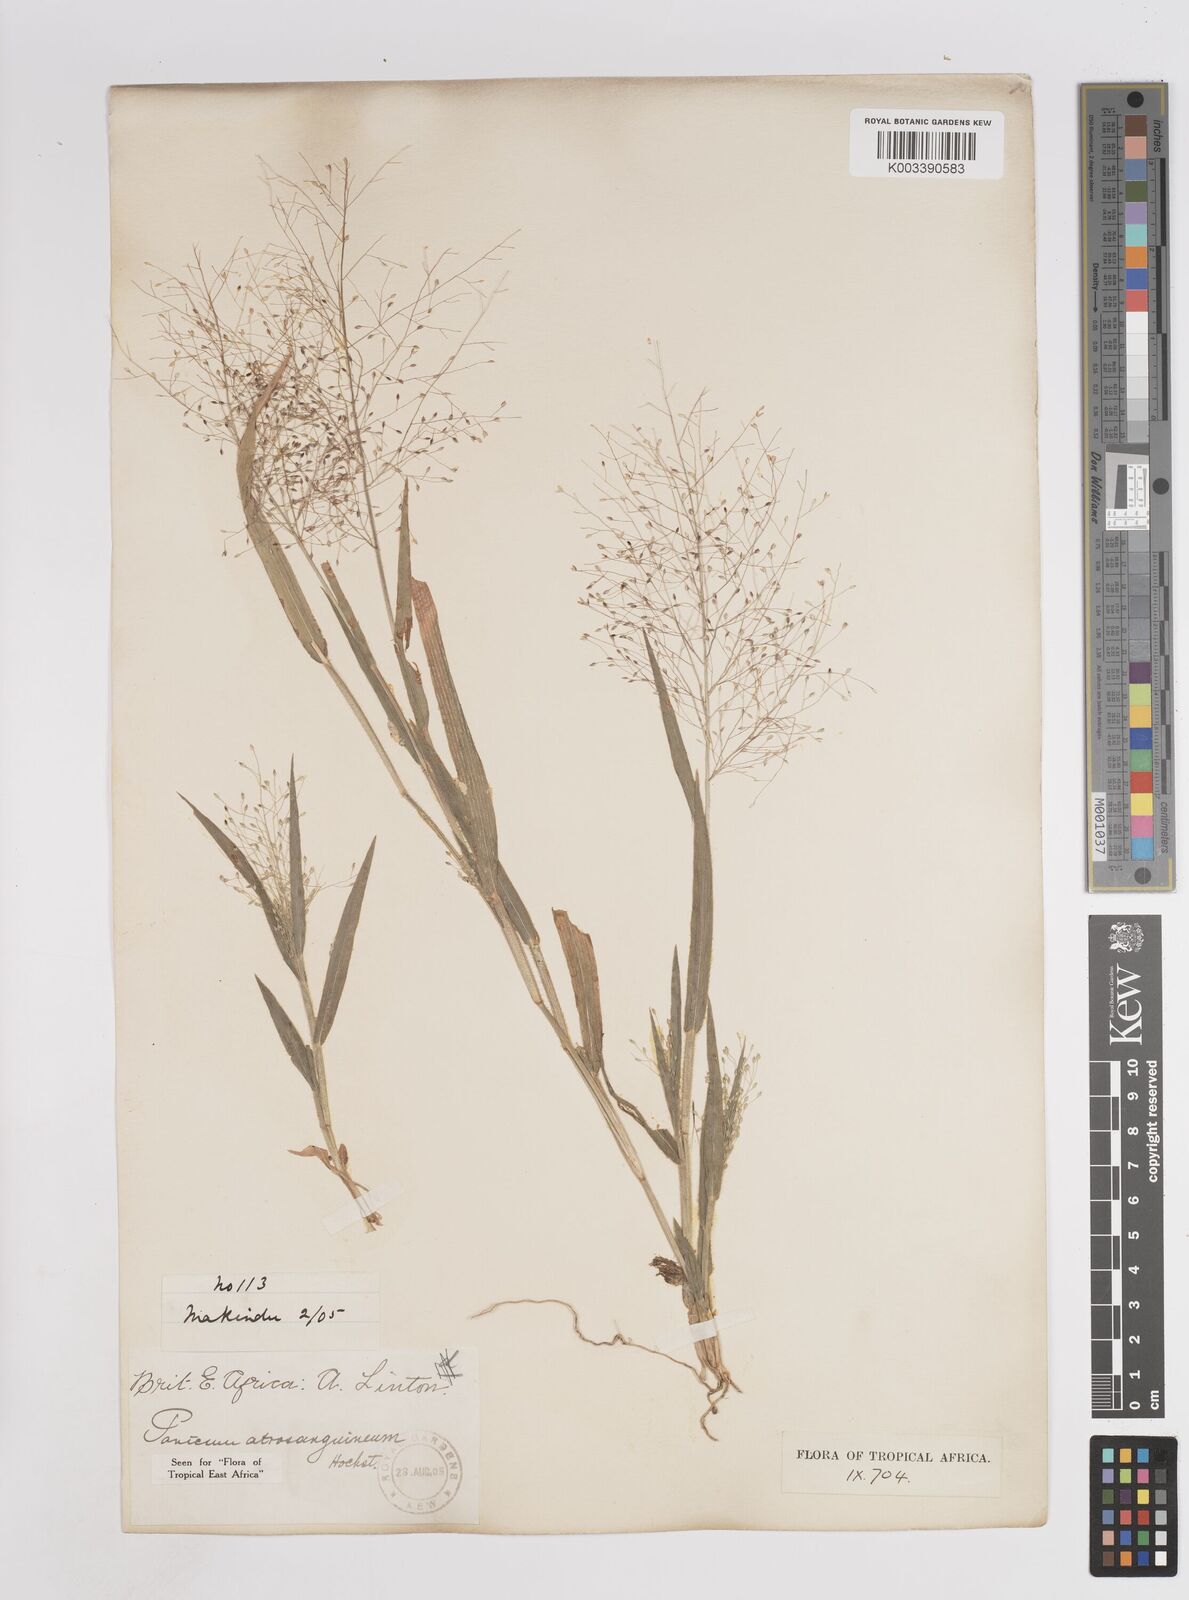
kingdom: Plantae
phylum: Tracheophyta
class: Liliopsida
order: Poales
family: Poaceae
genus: Panicum
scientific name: Panicum atrosanguineum
